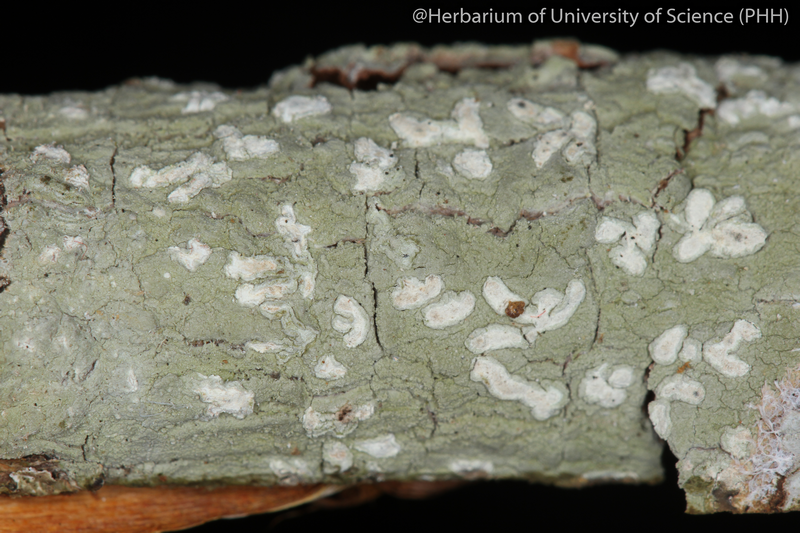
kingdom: Fungi
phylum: Ascomycota
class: Lecanoromycetes
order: Ostropales
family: Graphidaceae
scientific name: Graphidaceae
